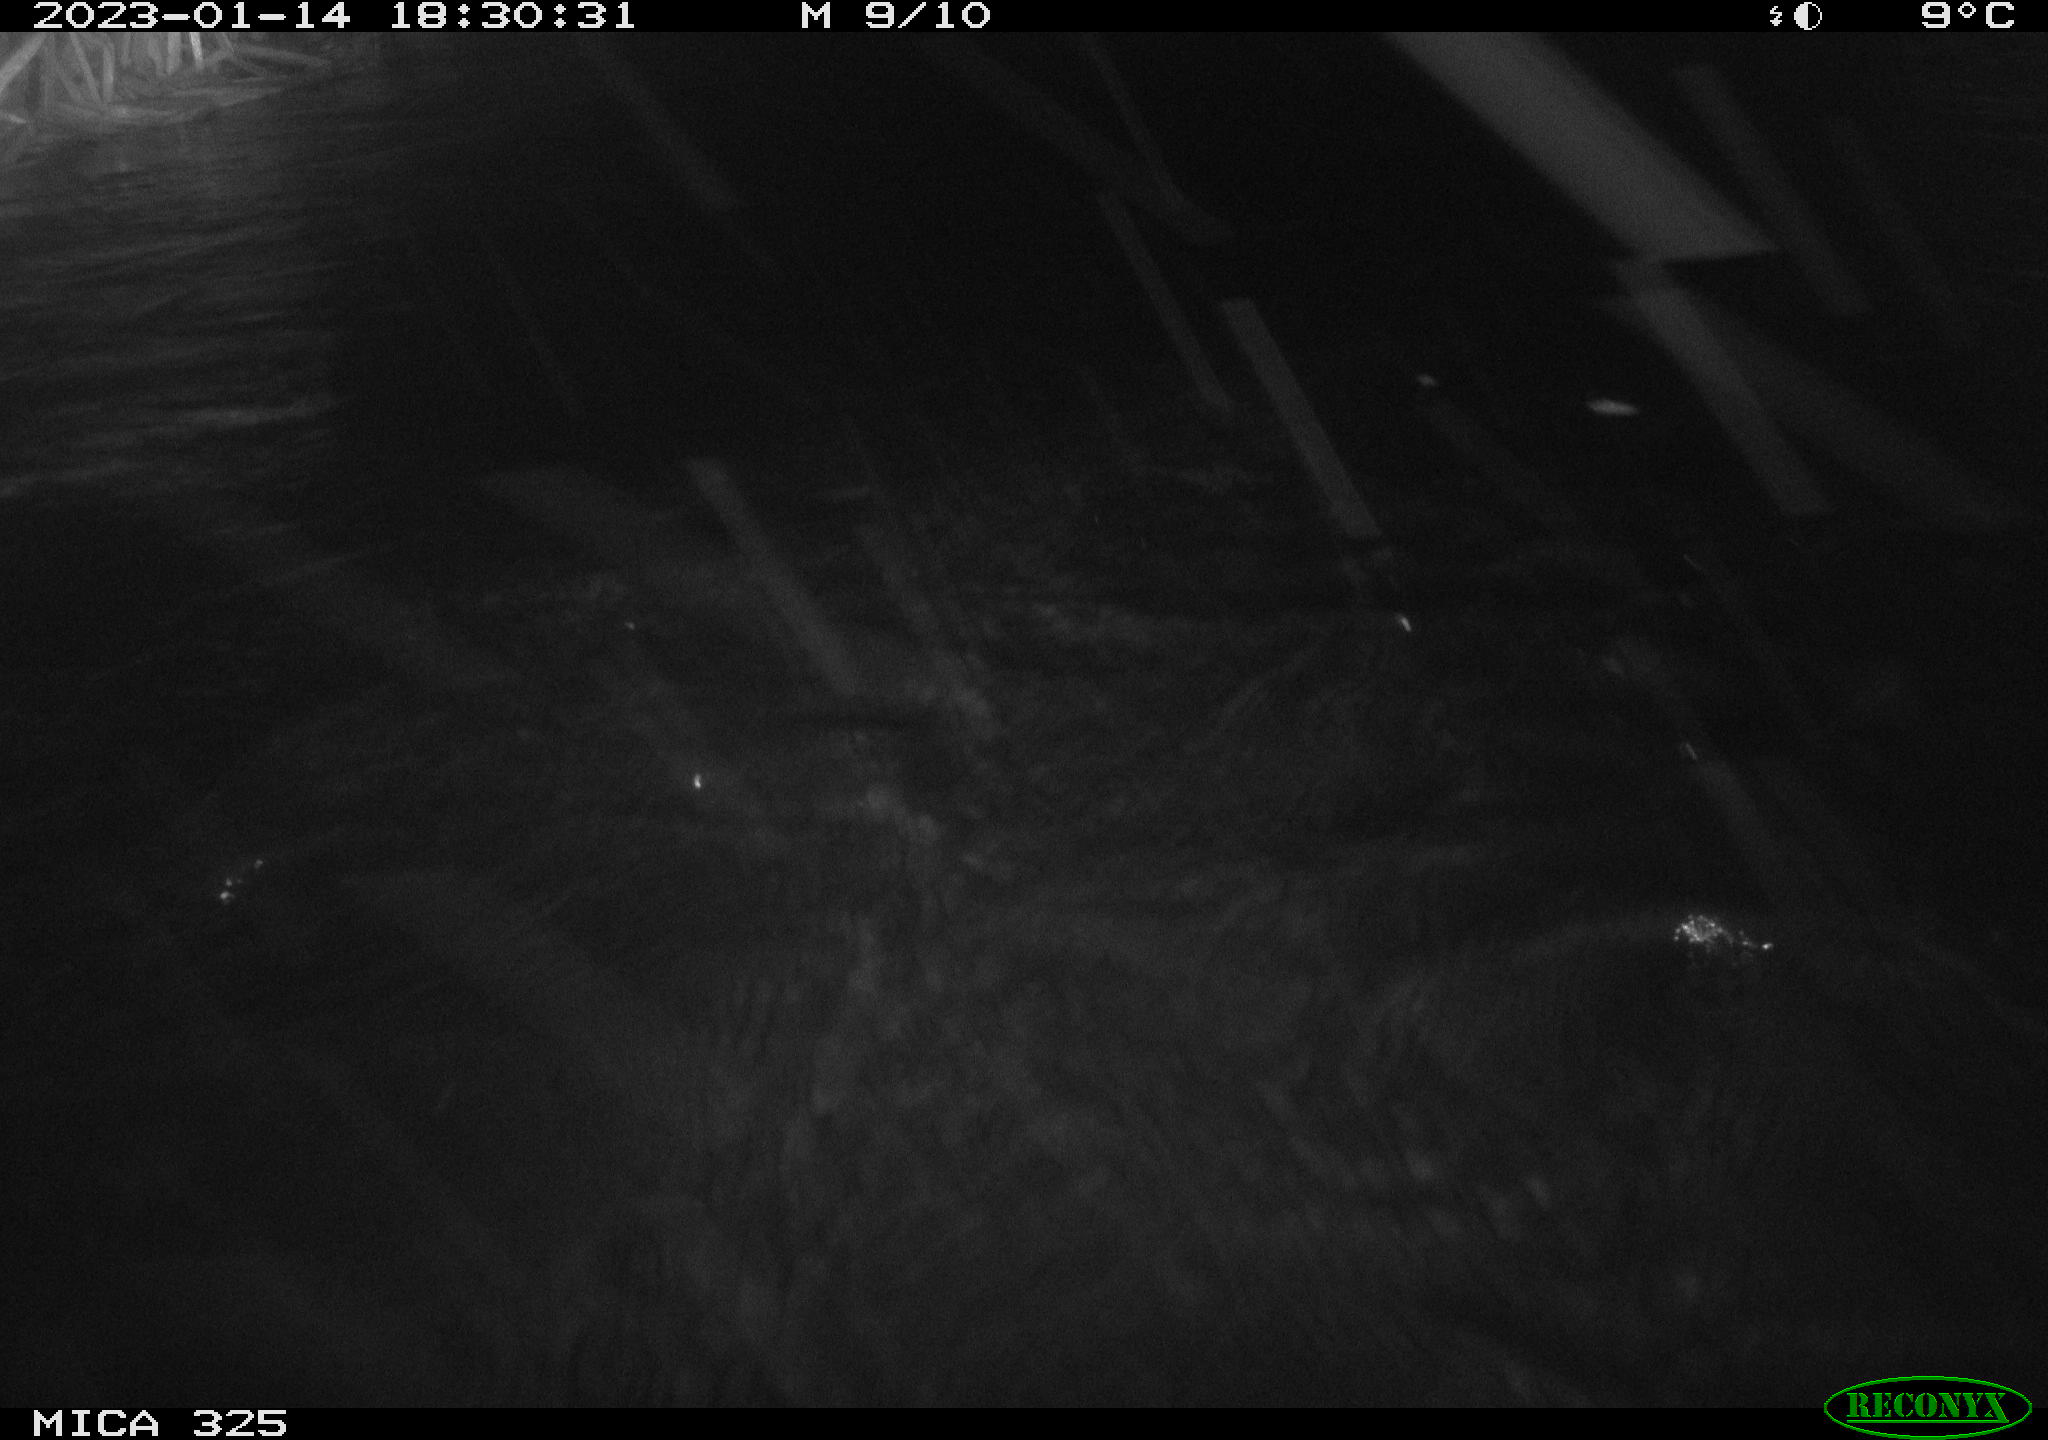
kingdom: Animalia
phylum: Chordata
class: Mammalia
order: Rodentia
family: Cricetidae
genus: Ondatra
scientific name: Ondatra zibethicus
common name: Muskrat
